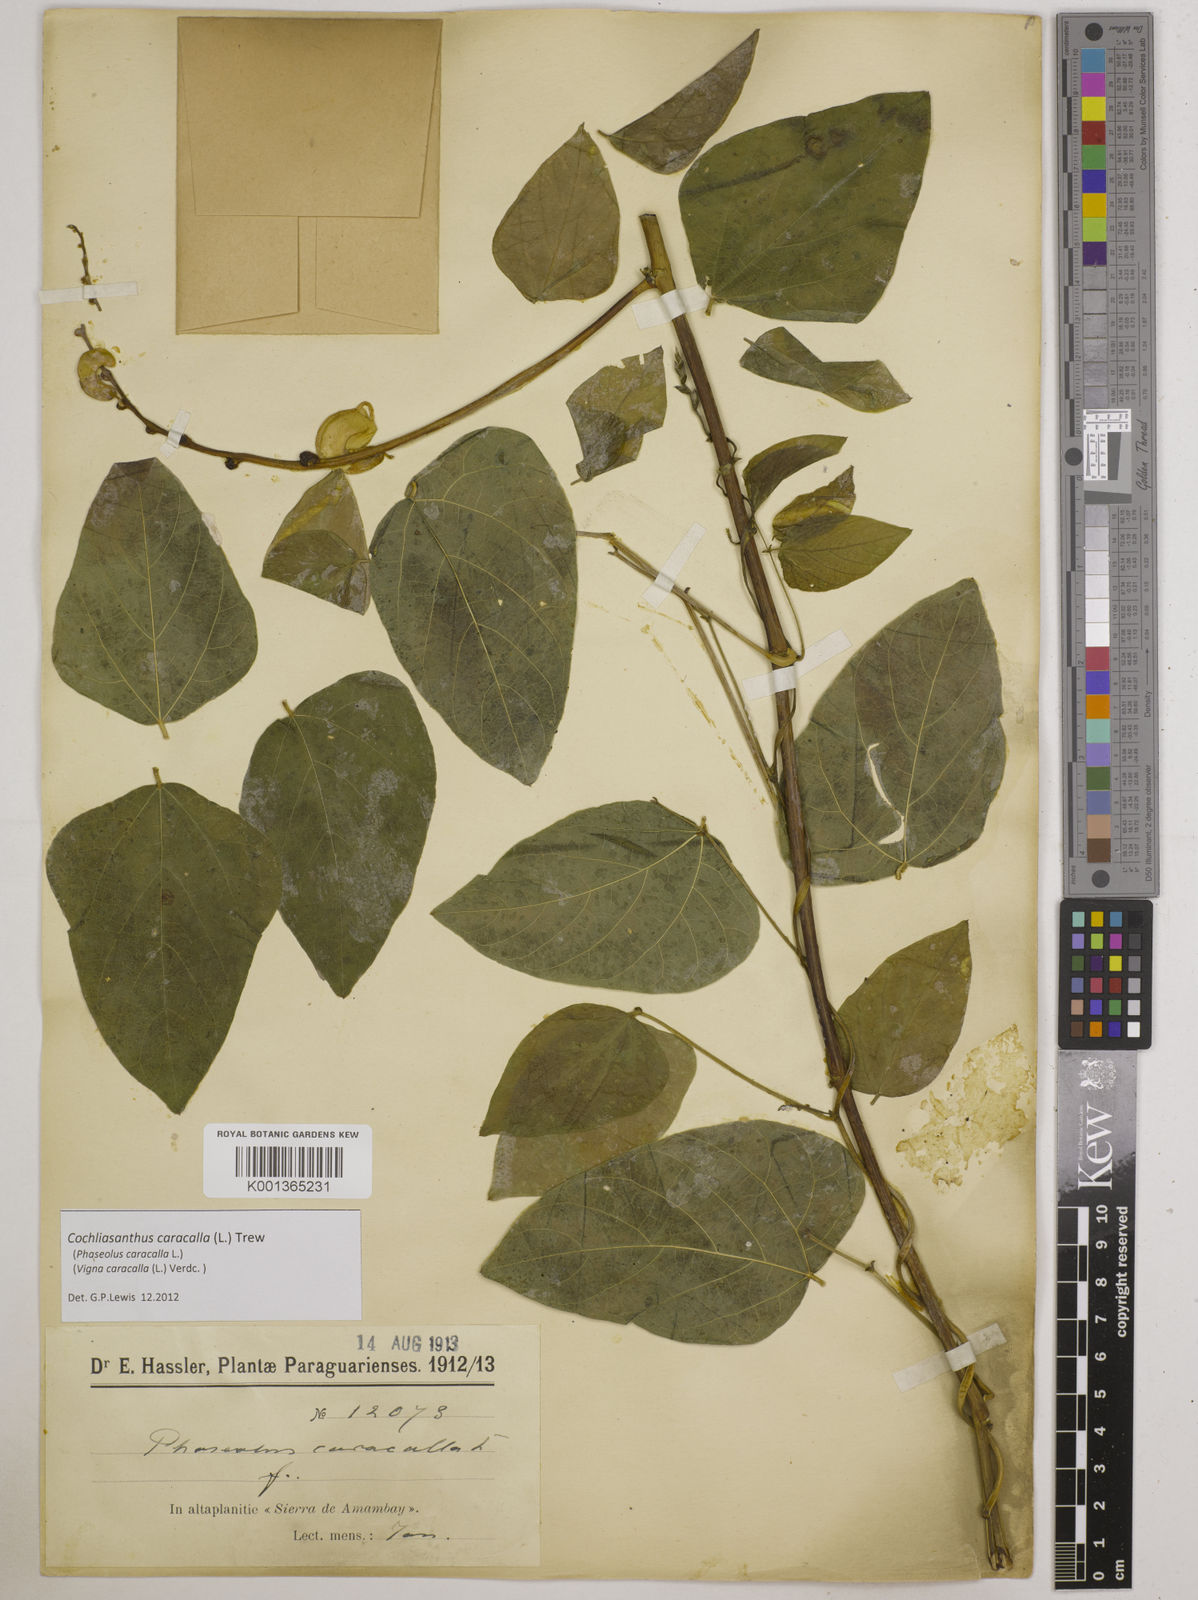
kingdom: Plantae
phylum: Tracheophyta
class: Magnoliopsida
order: Fabales
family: Fabaceae
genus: Cochliasanthus
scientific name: Cochliasanthus caracalla
